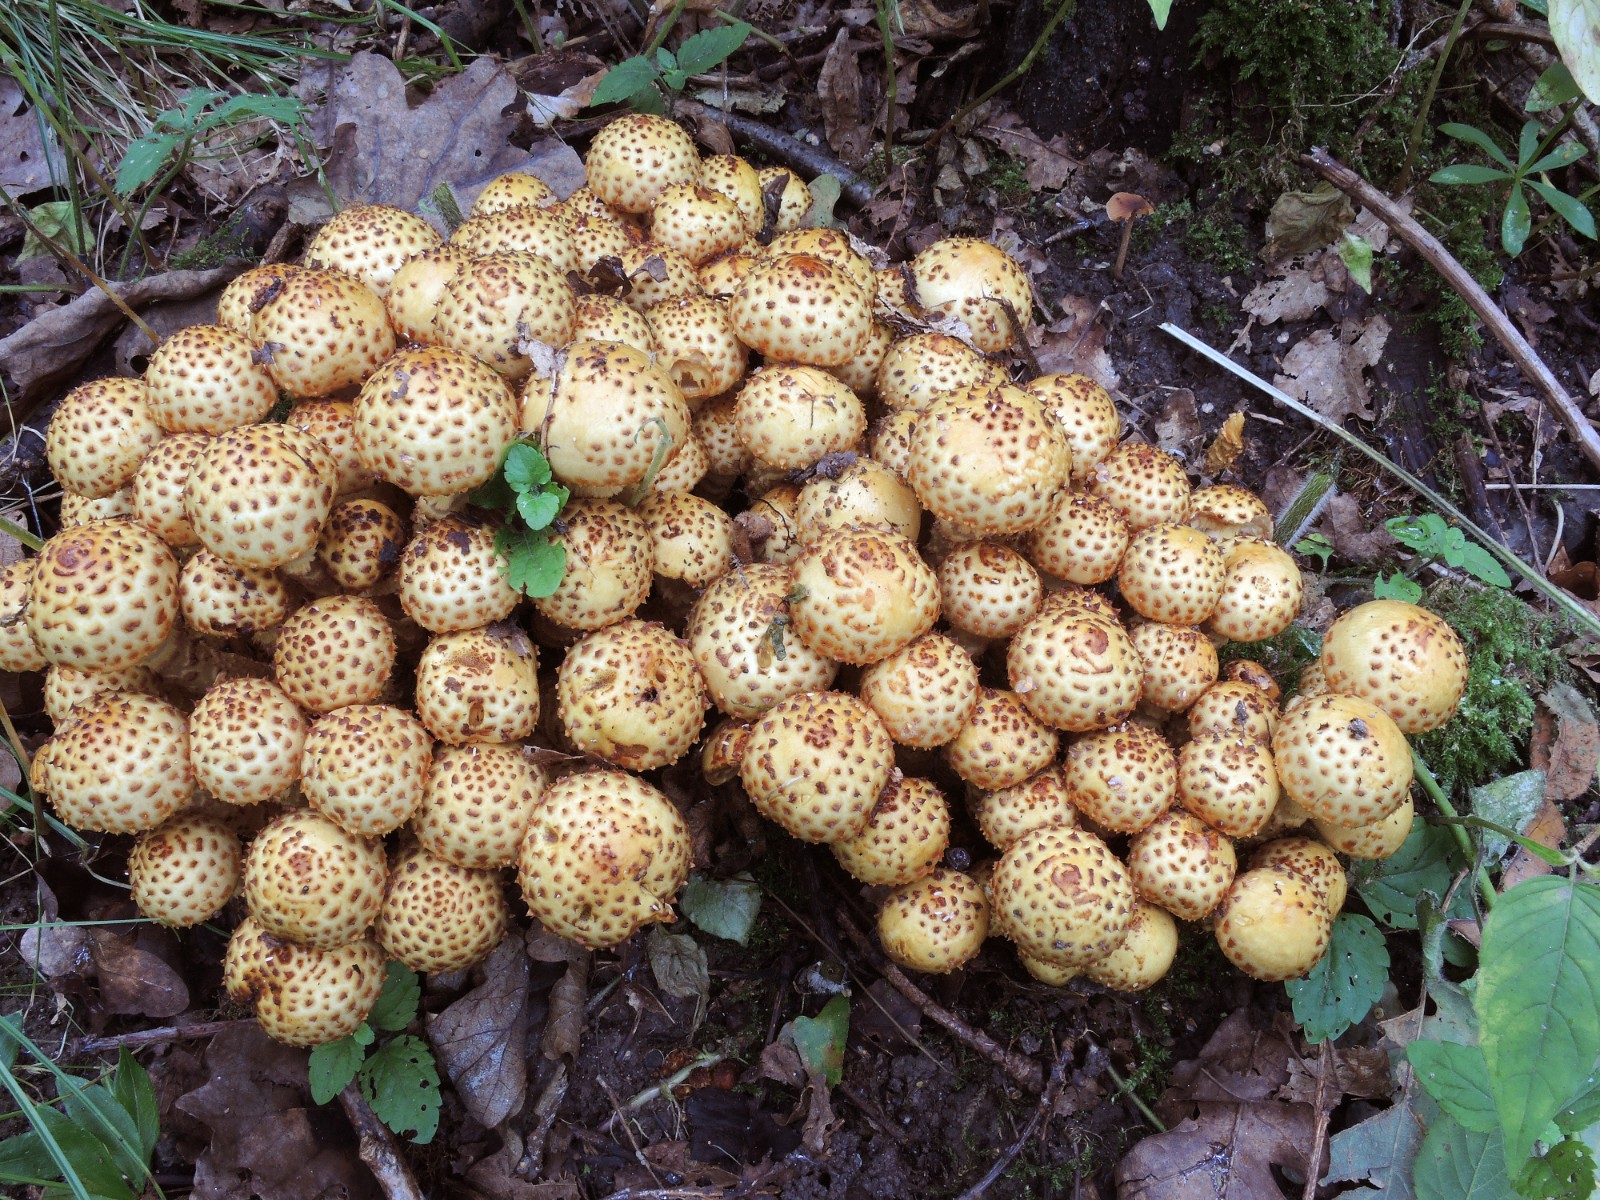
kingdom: Fungi
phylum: Basidiomycota
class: Agaricomycetes
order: Agaricales
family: Strophariaceae
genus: Pholiota
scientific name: Pholiota jahnii
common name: slimet skælhat
